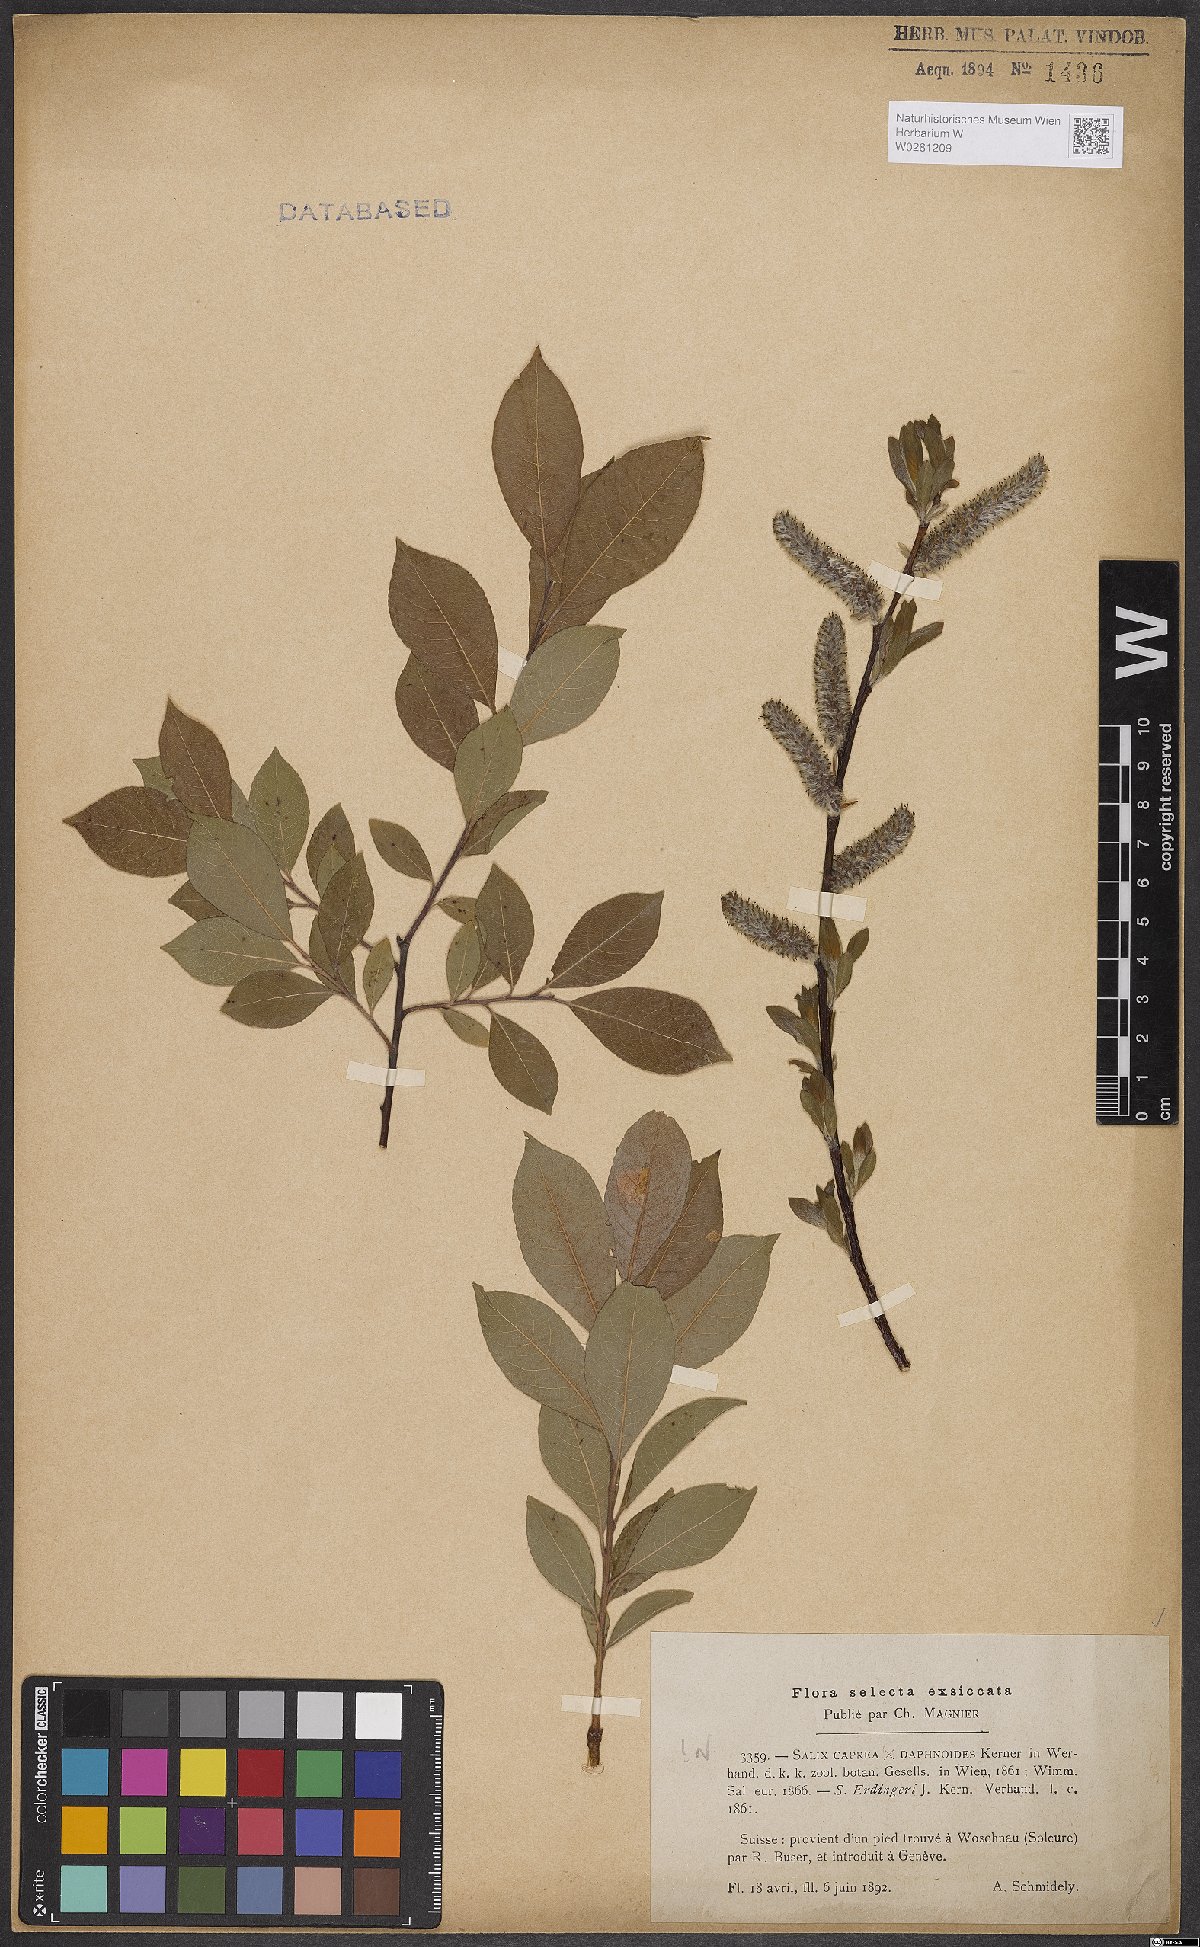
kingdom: Plantae
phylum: Tracheophyta
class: Magnoliopsida
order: Malpighiales
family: Salicaceae
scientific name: Salicaceae
